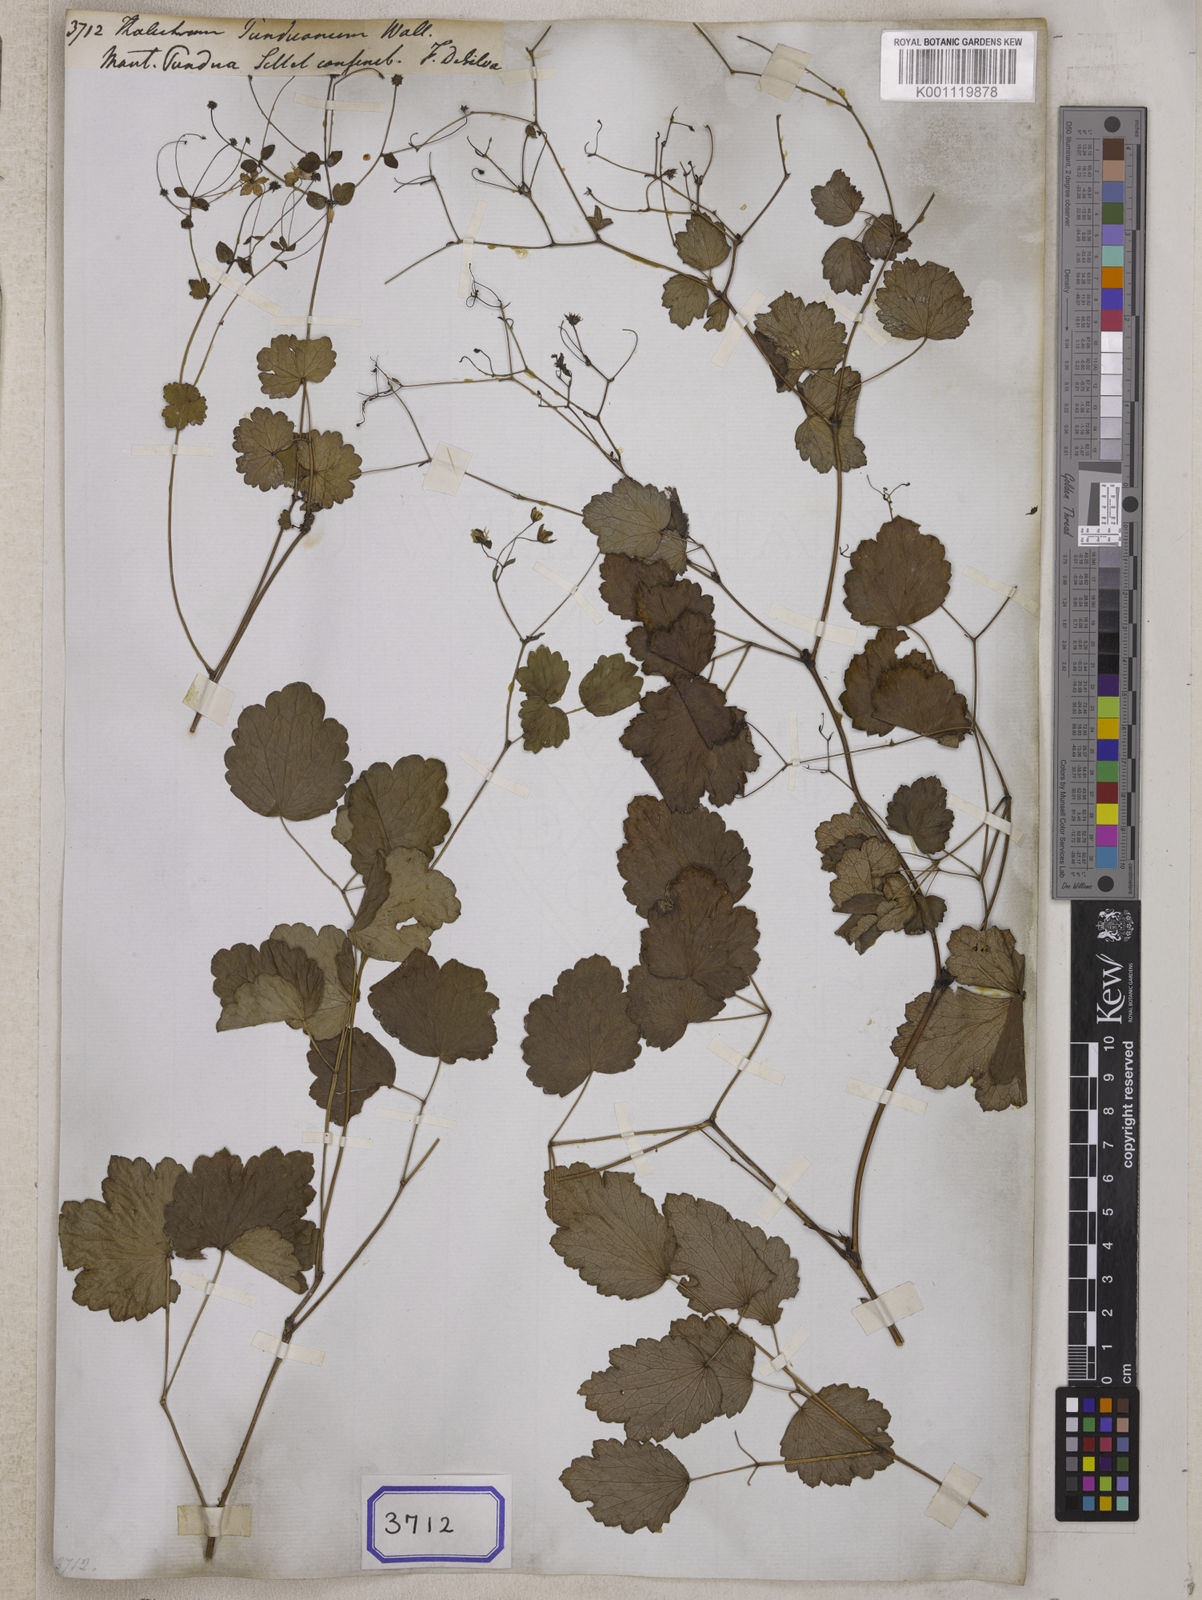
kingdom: Plantae
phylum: Tracheophyta
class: Magnoliopsida
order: Ranunculales
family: Ranunculaceae
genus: Thalictrum
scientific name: Thalictrum punduanum
